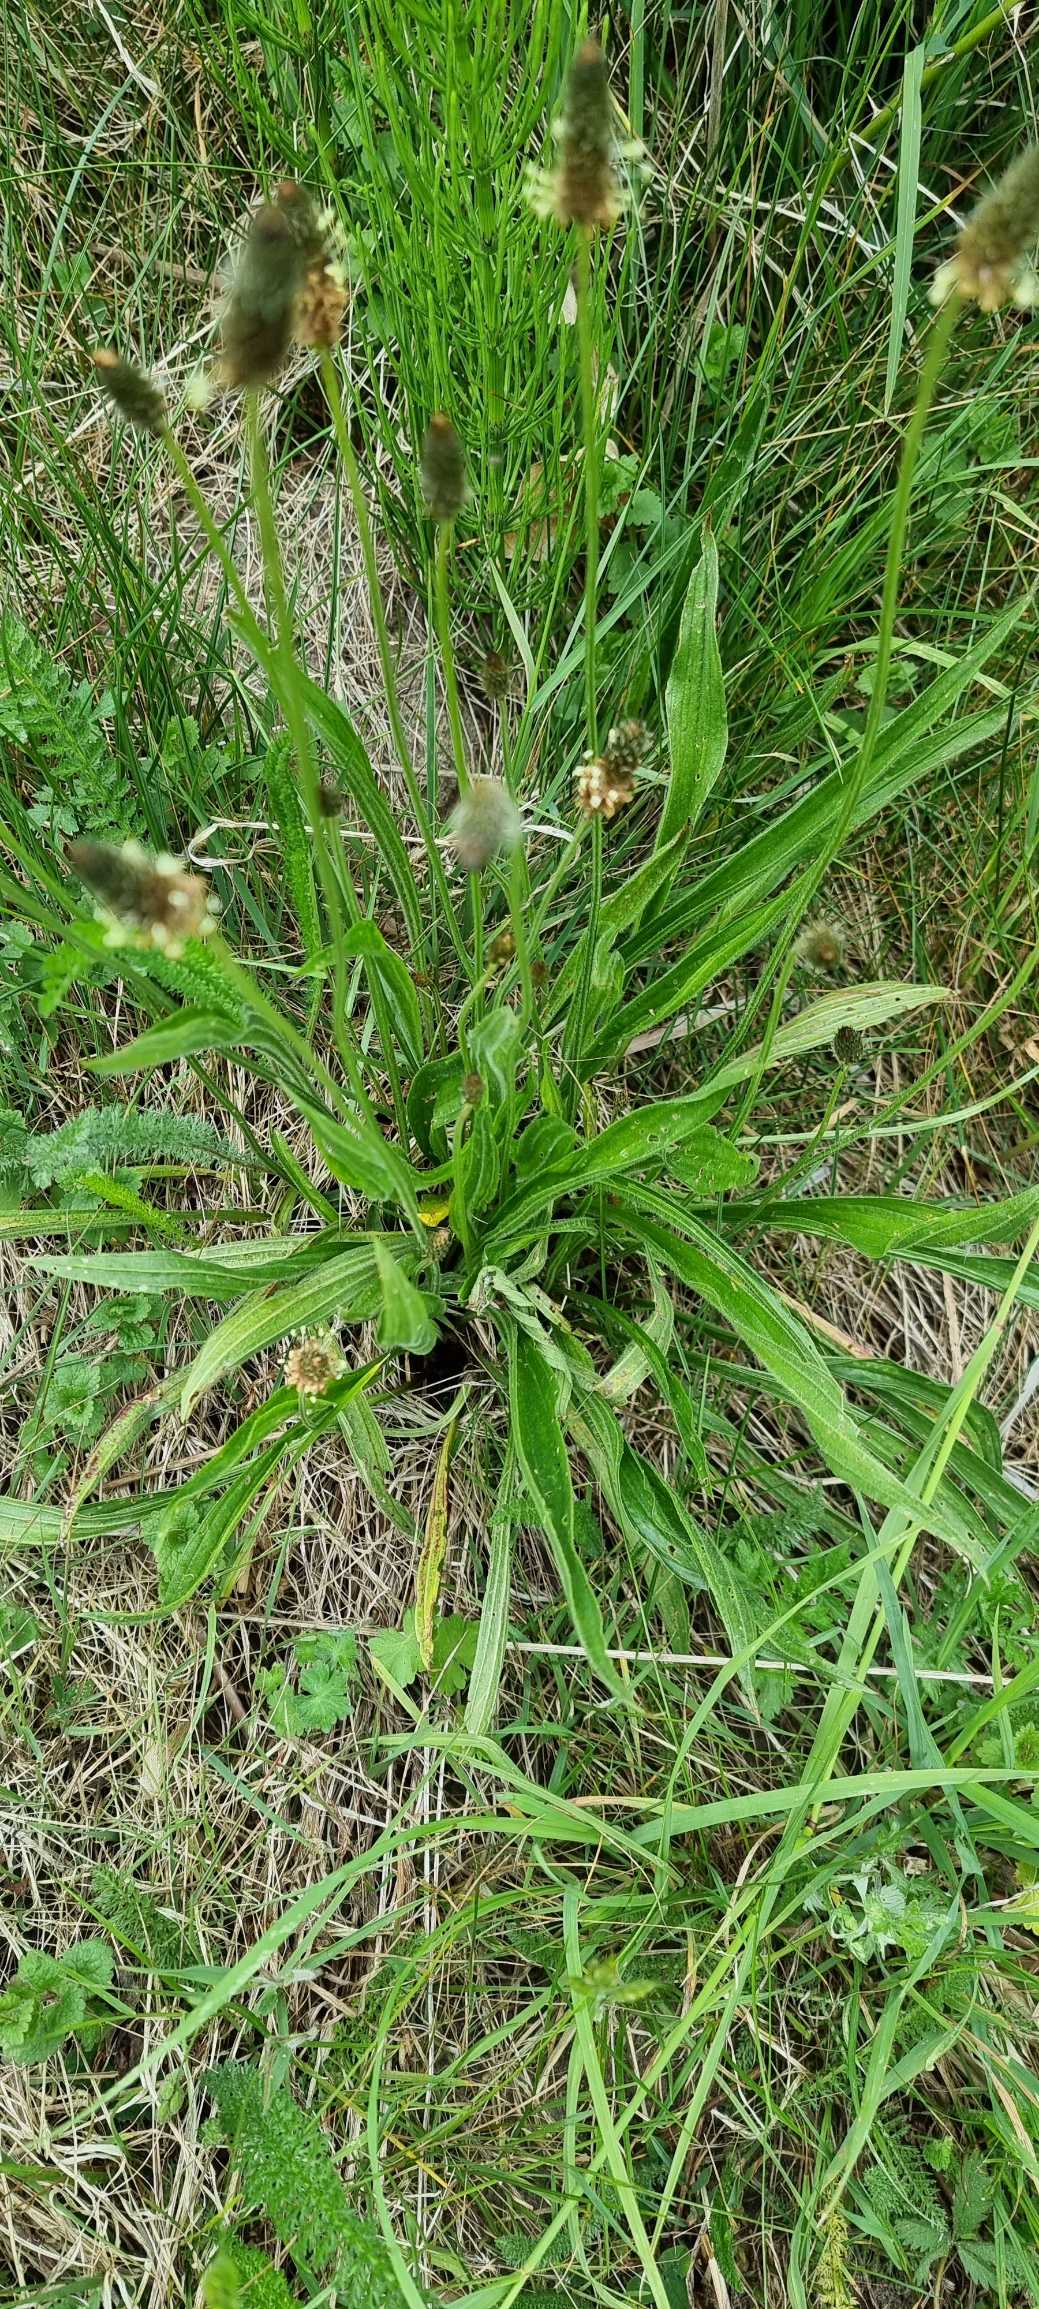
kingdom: Plantae
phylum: Tracheophyta
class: Magnoliopsida
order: Lamiales
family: Plantaginaceae
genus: Plantago
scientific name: Plantago lanceolata
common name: Lancet-vejbred
